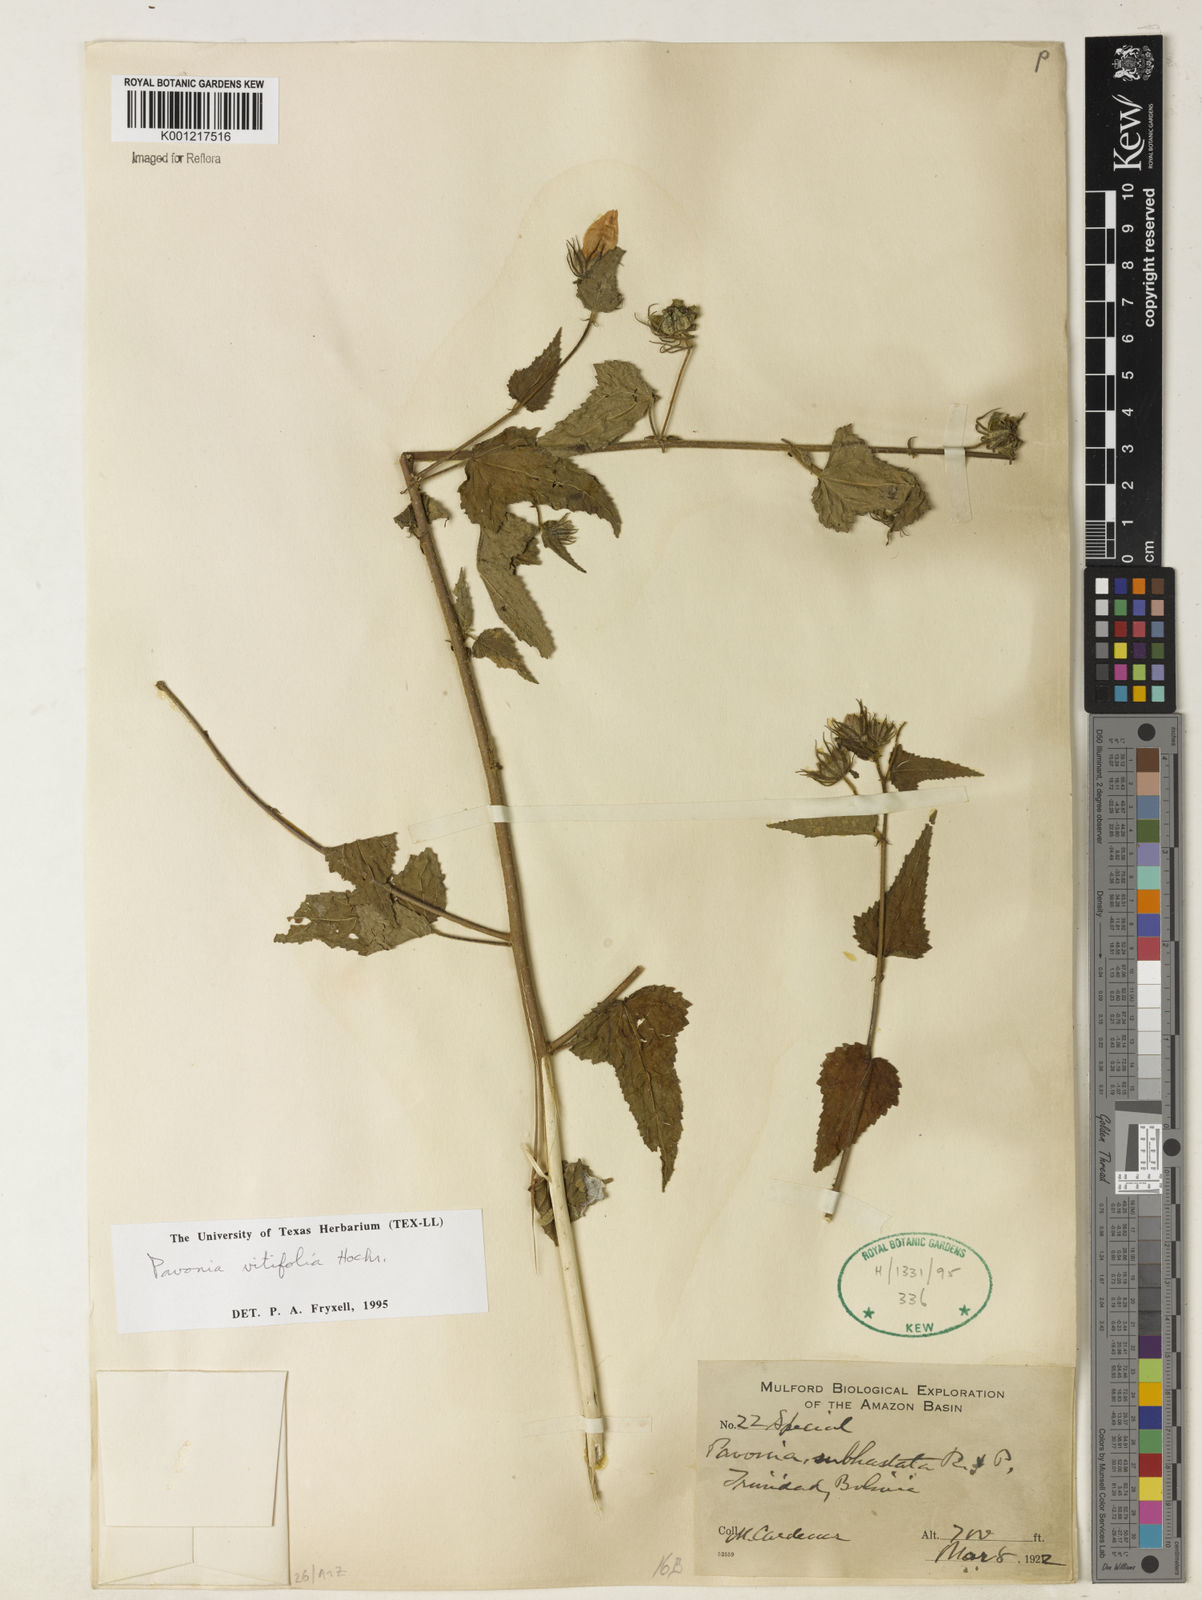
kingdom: Plantae
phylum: Tracheophyta
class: Magnoliopsida
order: Malvales
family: Malvaceae
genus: Pavonia
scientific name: Pavonia
